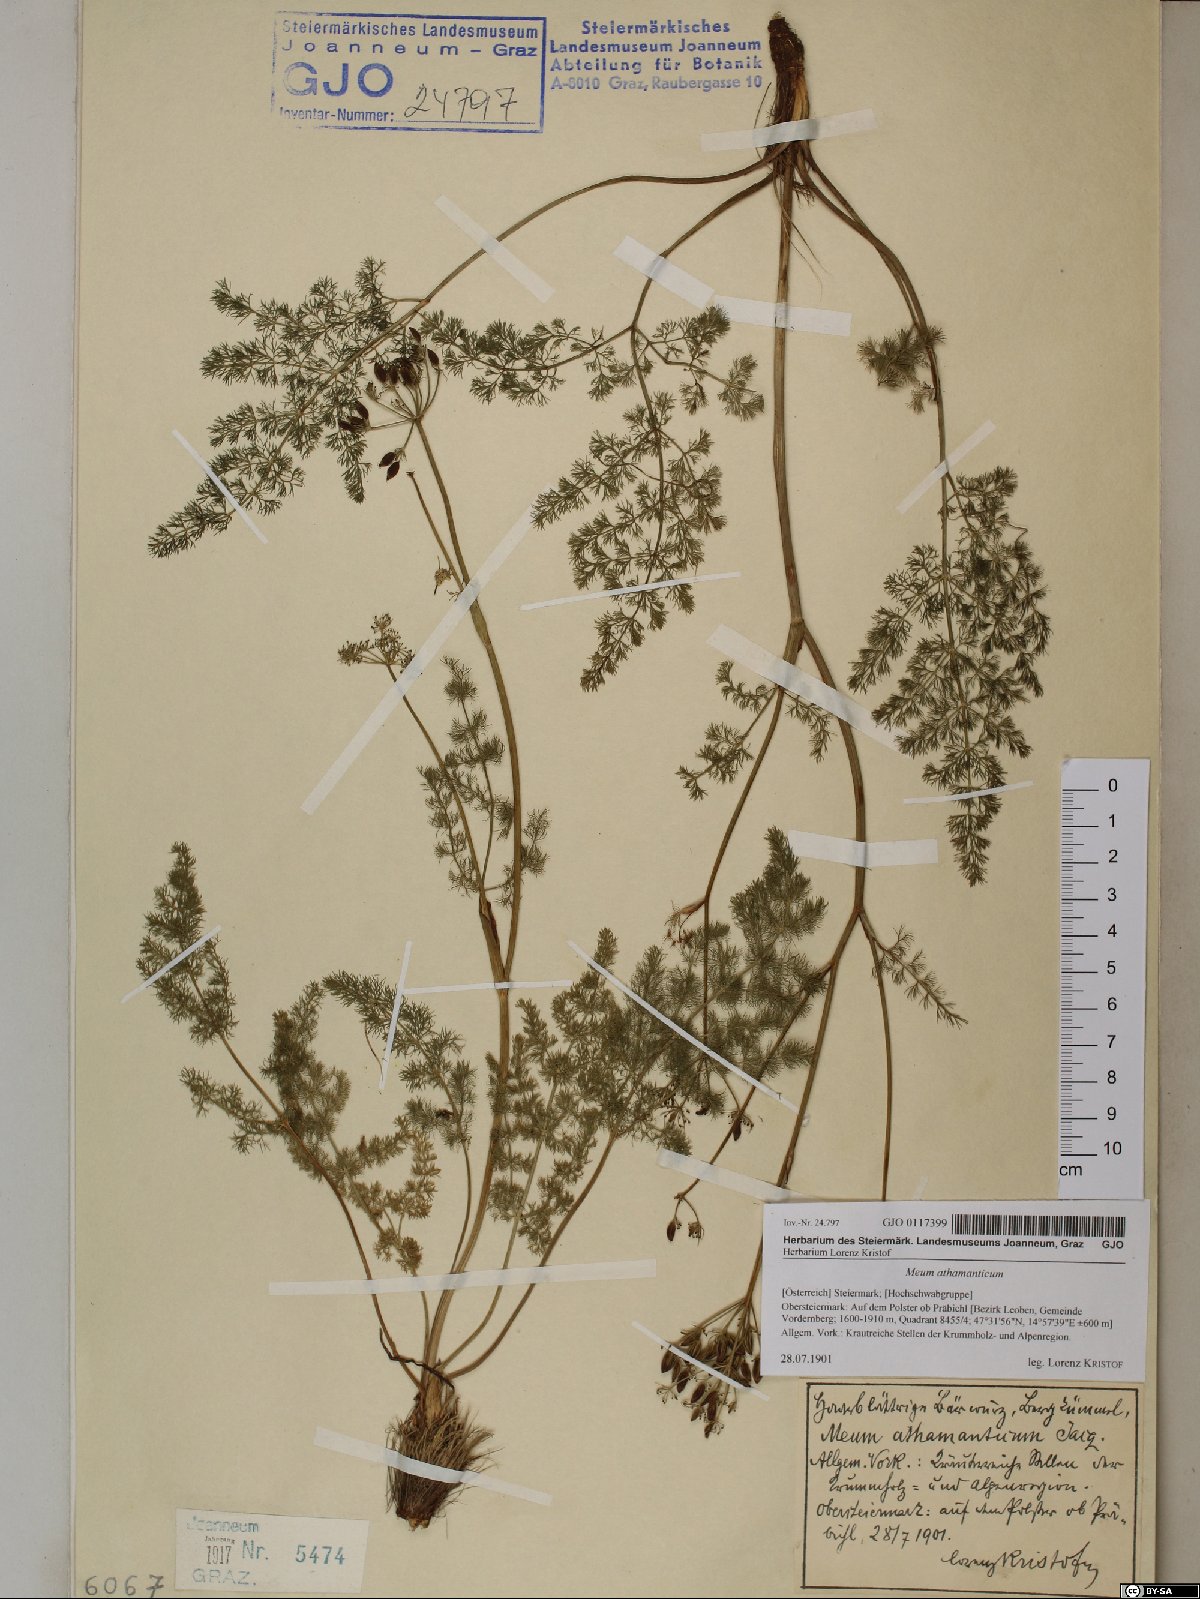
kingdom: Plantae
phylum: Tracheophyta
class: Magnoliopsida
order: Apiales
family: Apiaceae
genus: Meum
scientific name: Meum athamanticum
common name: Spignel
